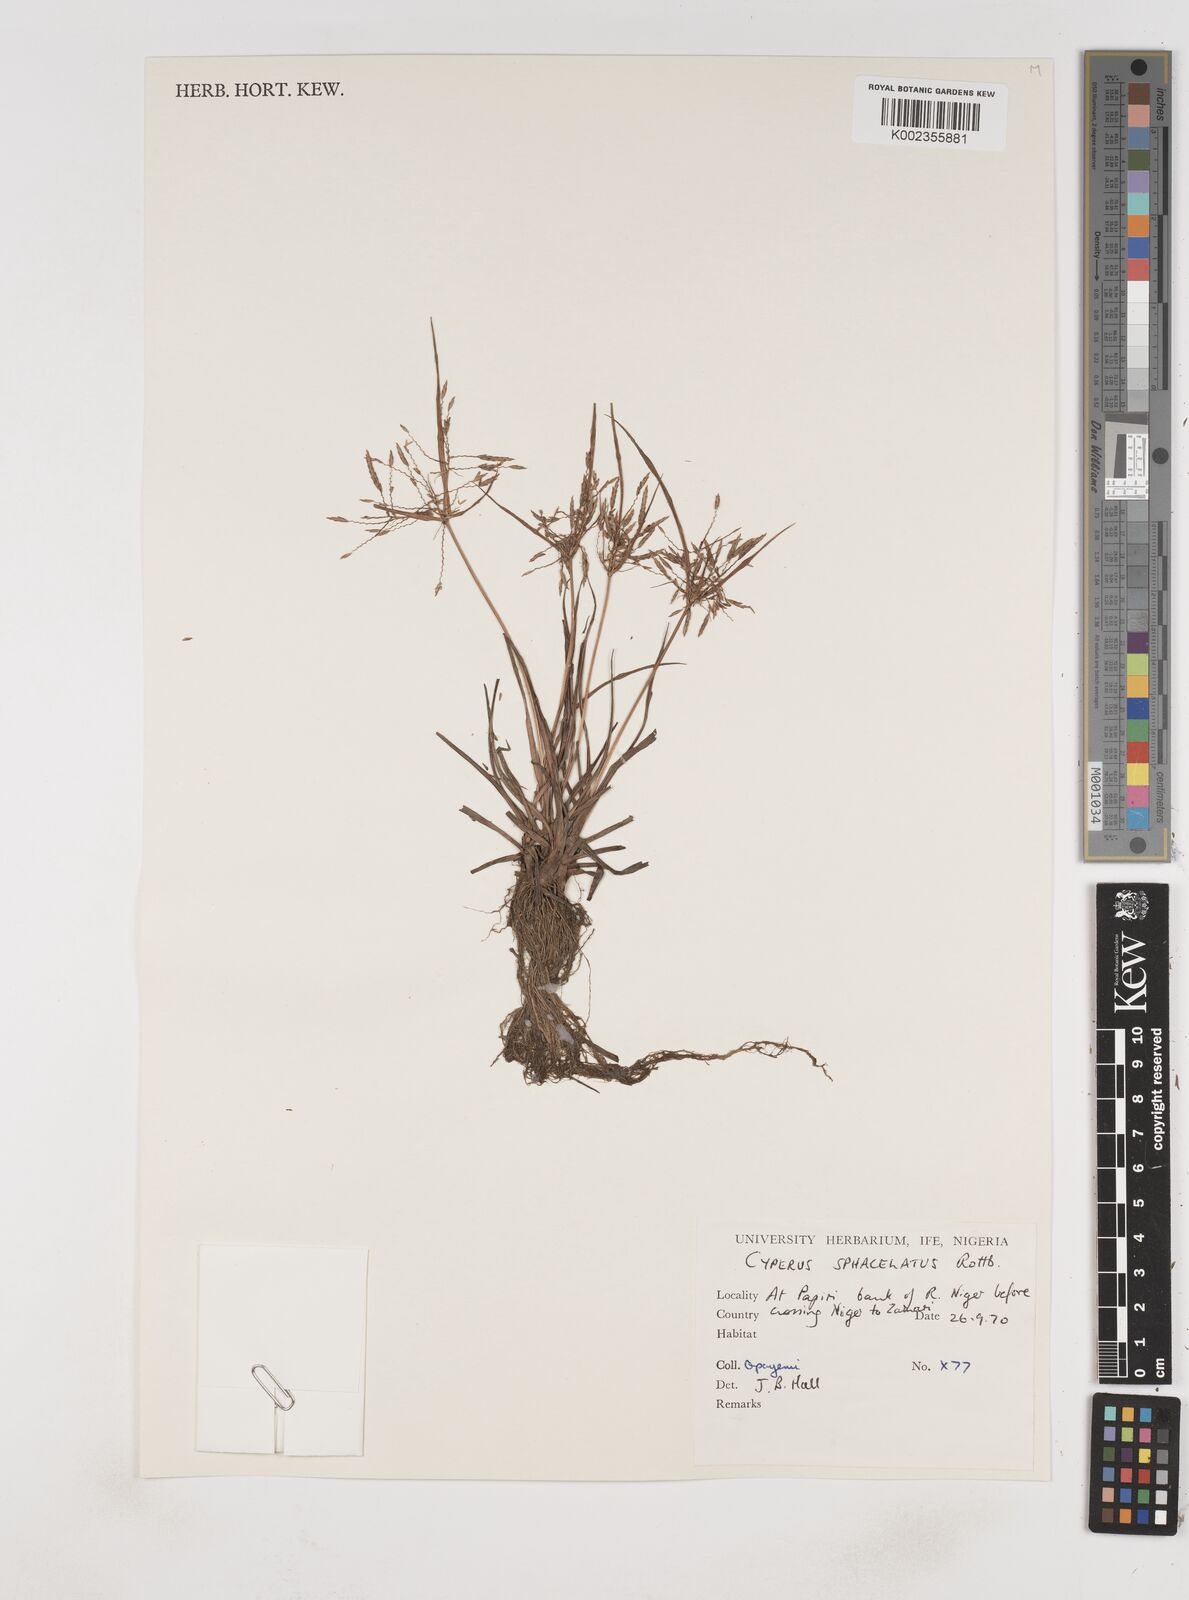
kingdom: Plantae
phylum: Tracheophyta
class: Liliopsida
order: Poales
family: Cyperaceae
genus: Cyperus
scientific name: Cyperus sphacelatus
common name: Roadside flatsedge
